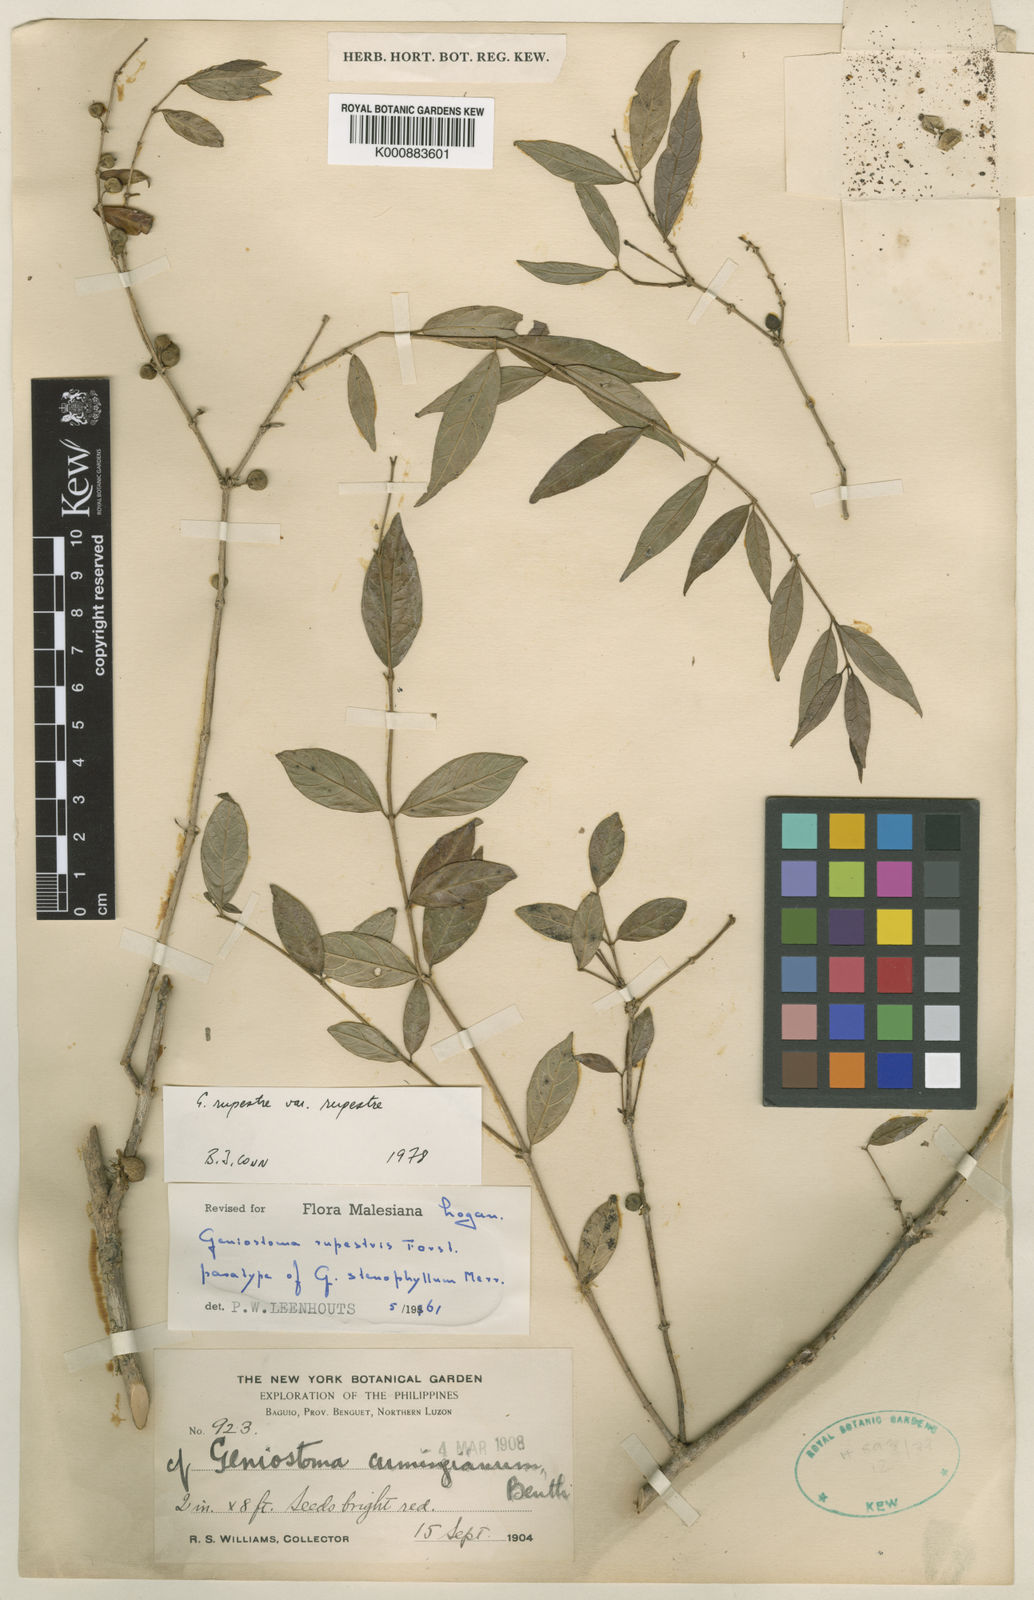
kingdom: Plantae
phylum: Tracheophyta
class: Magnoliopsida
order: Gentianales
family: Loganiaceae
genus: Geniostoma
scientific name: Geniostoma rupestre
